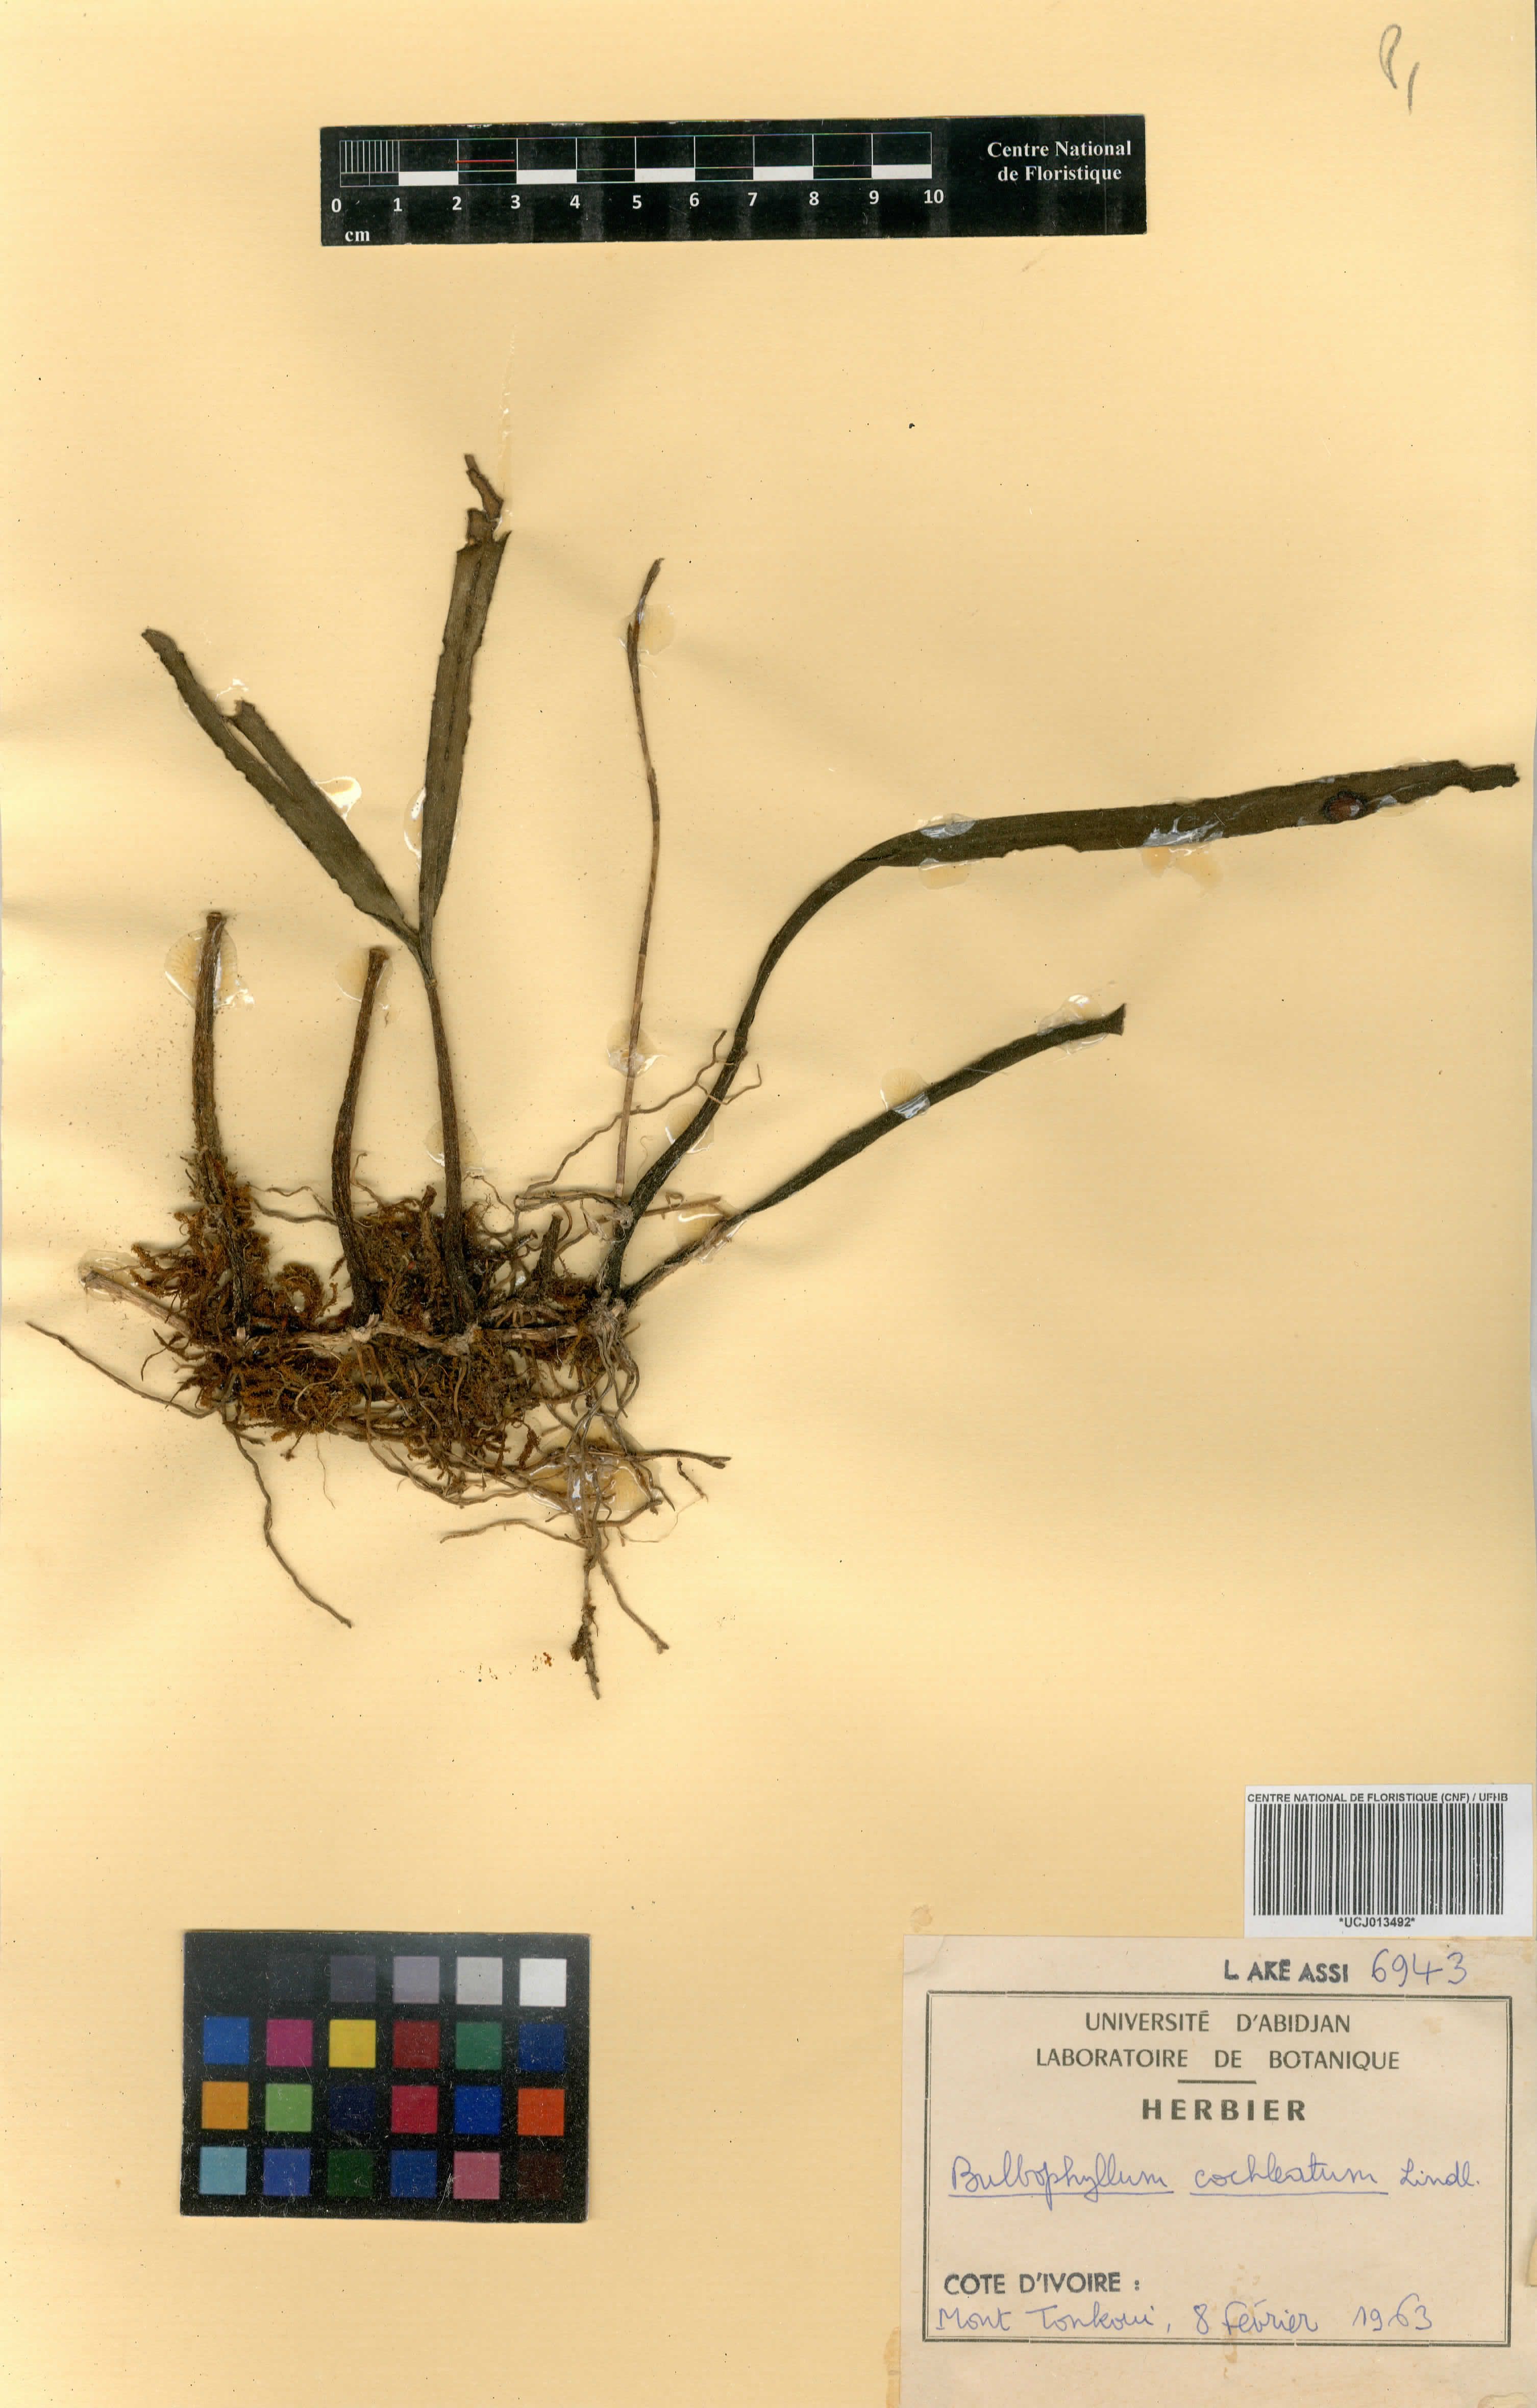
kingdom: Plantae
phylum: Tracheophyta
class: Liliopsida
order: Asparagales
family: Orchidaceae
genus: Bulbophyllum
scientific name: Bulbophyllum cochleatum
